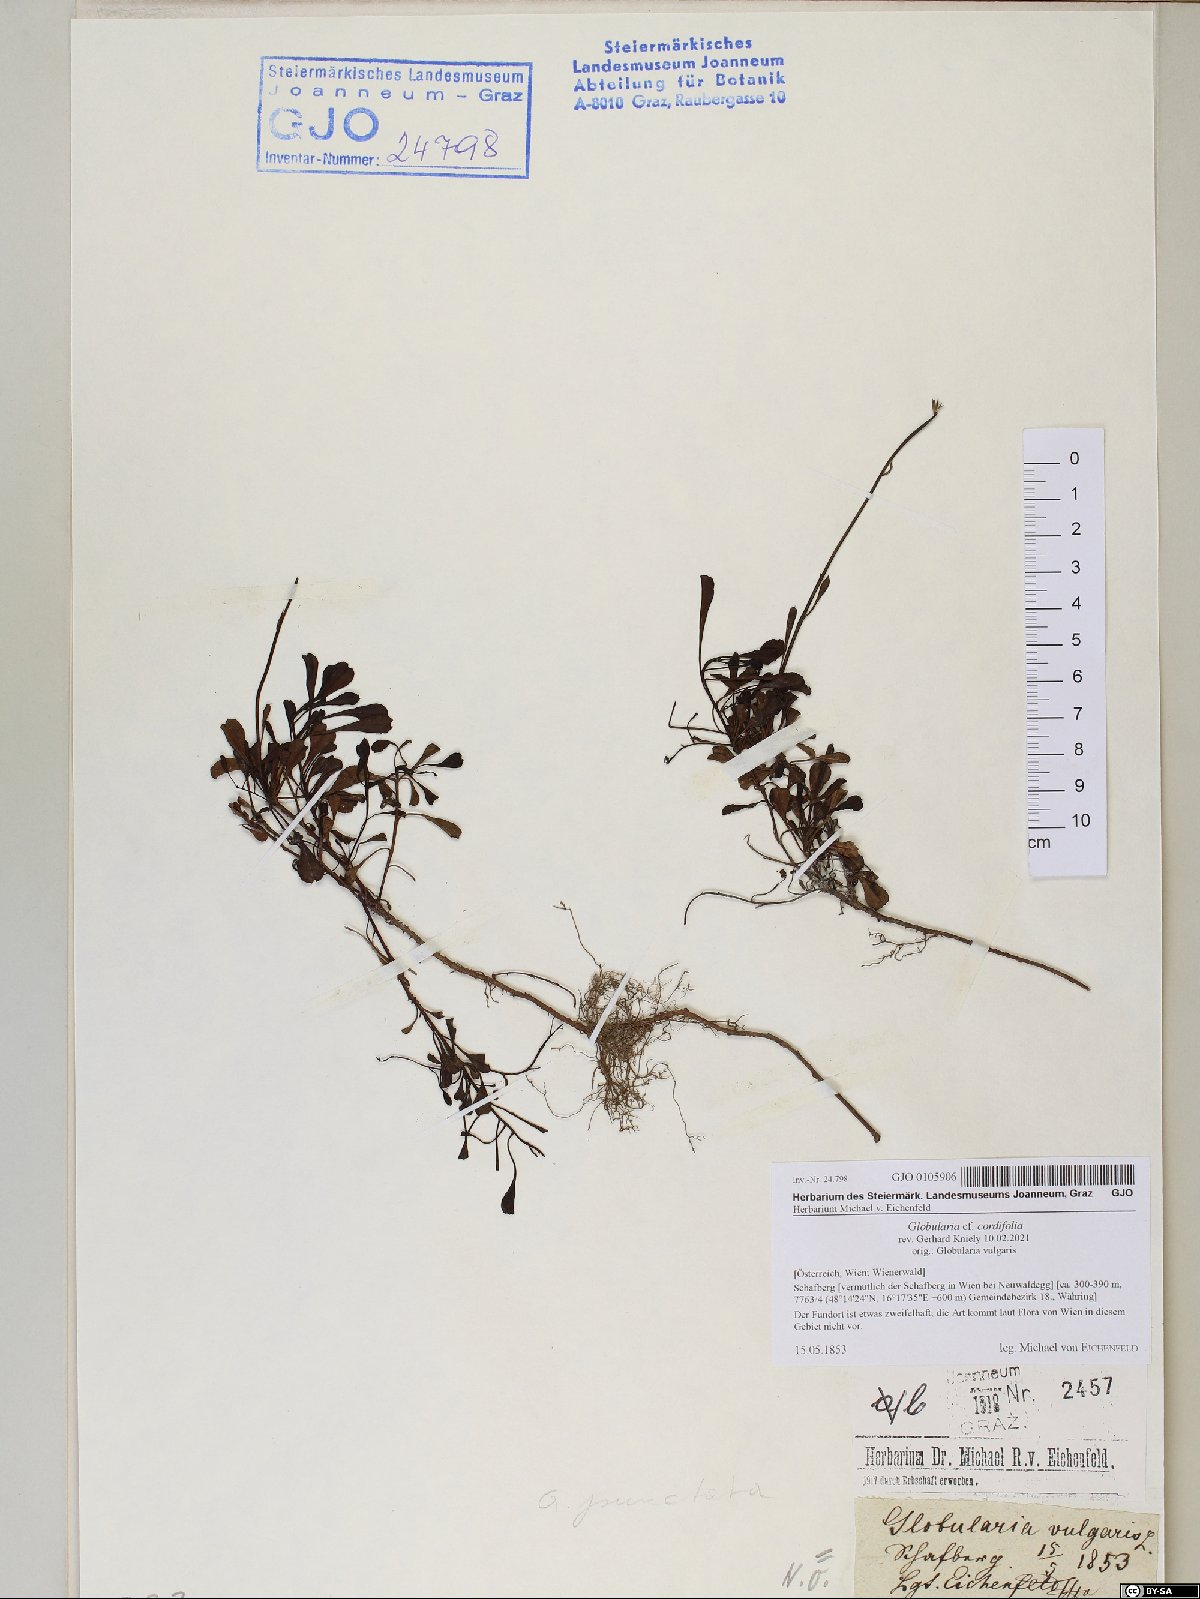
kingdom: Plantae
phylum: Tracheophyta
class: Magnoliopsida
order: Lamiales
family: Plantaginaceae
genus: Globularia
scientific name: Globularia cordifolia
